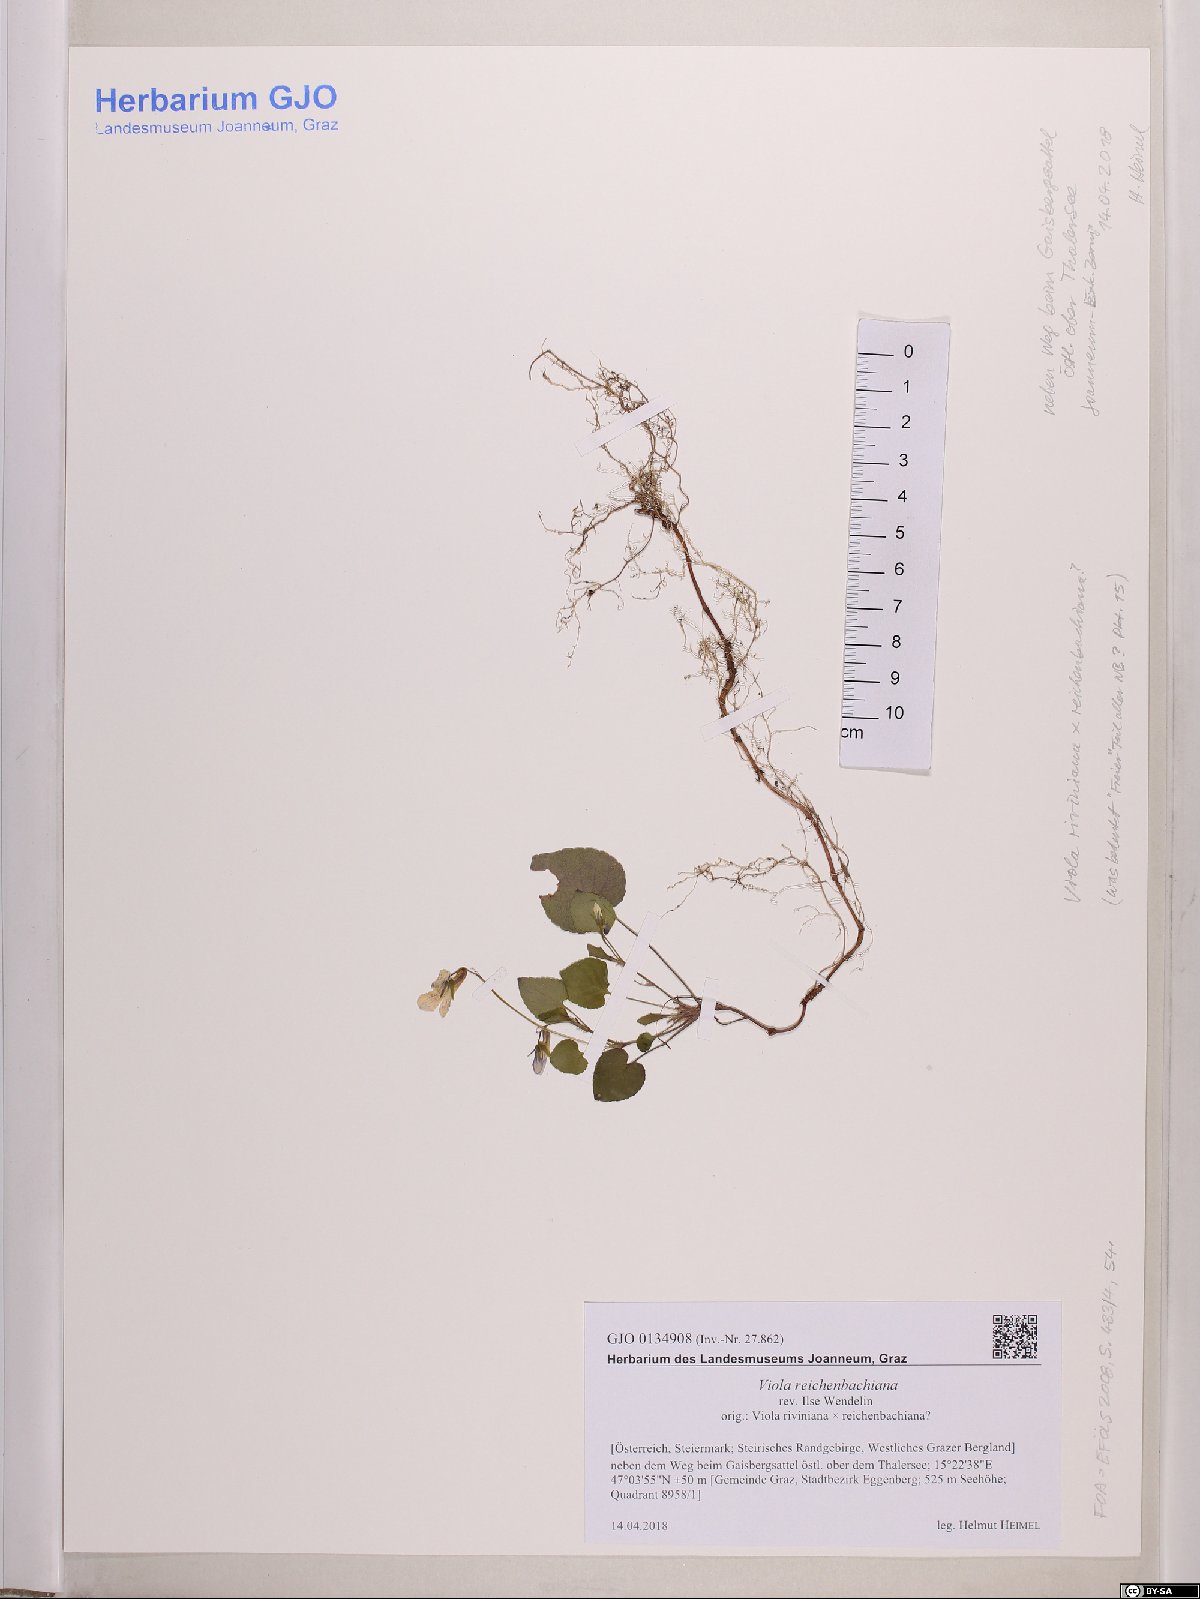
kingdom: Plantae
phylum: Tracheophyta
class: Magnoliopsida
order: Malpighiales
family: Violaceae
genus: Viola
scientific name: Viola reichenbachiana
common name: Early dog-violet
